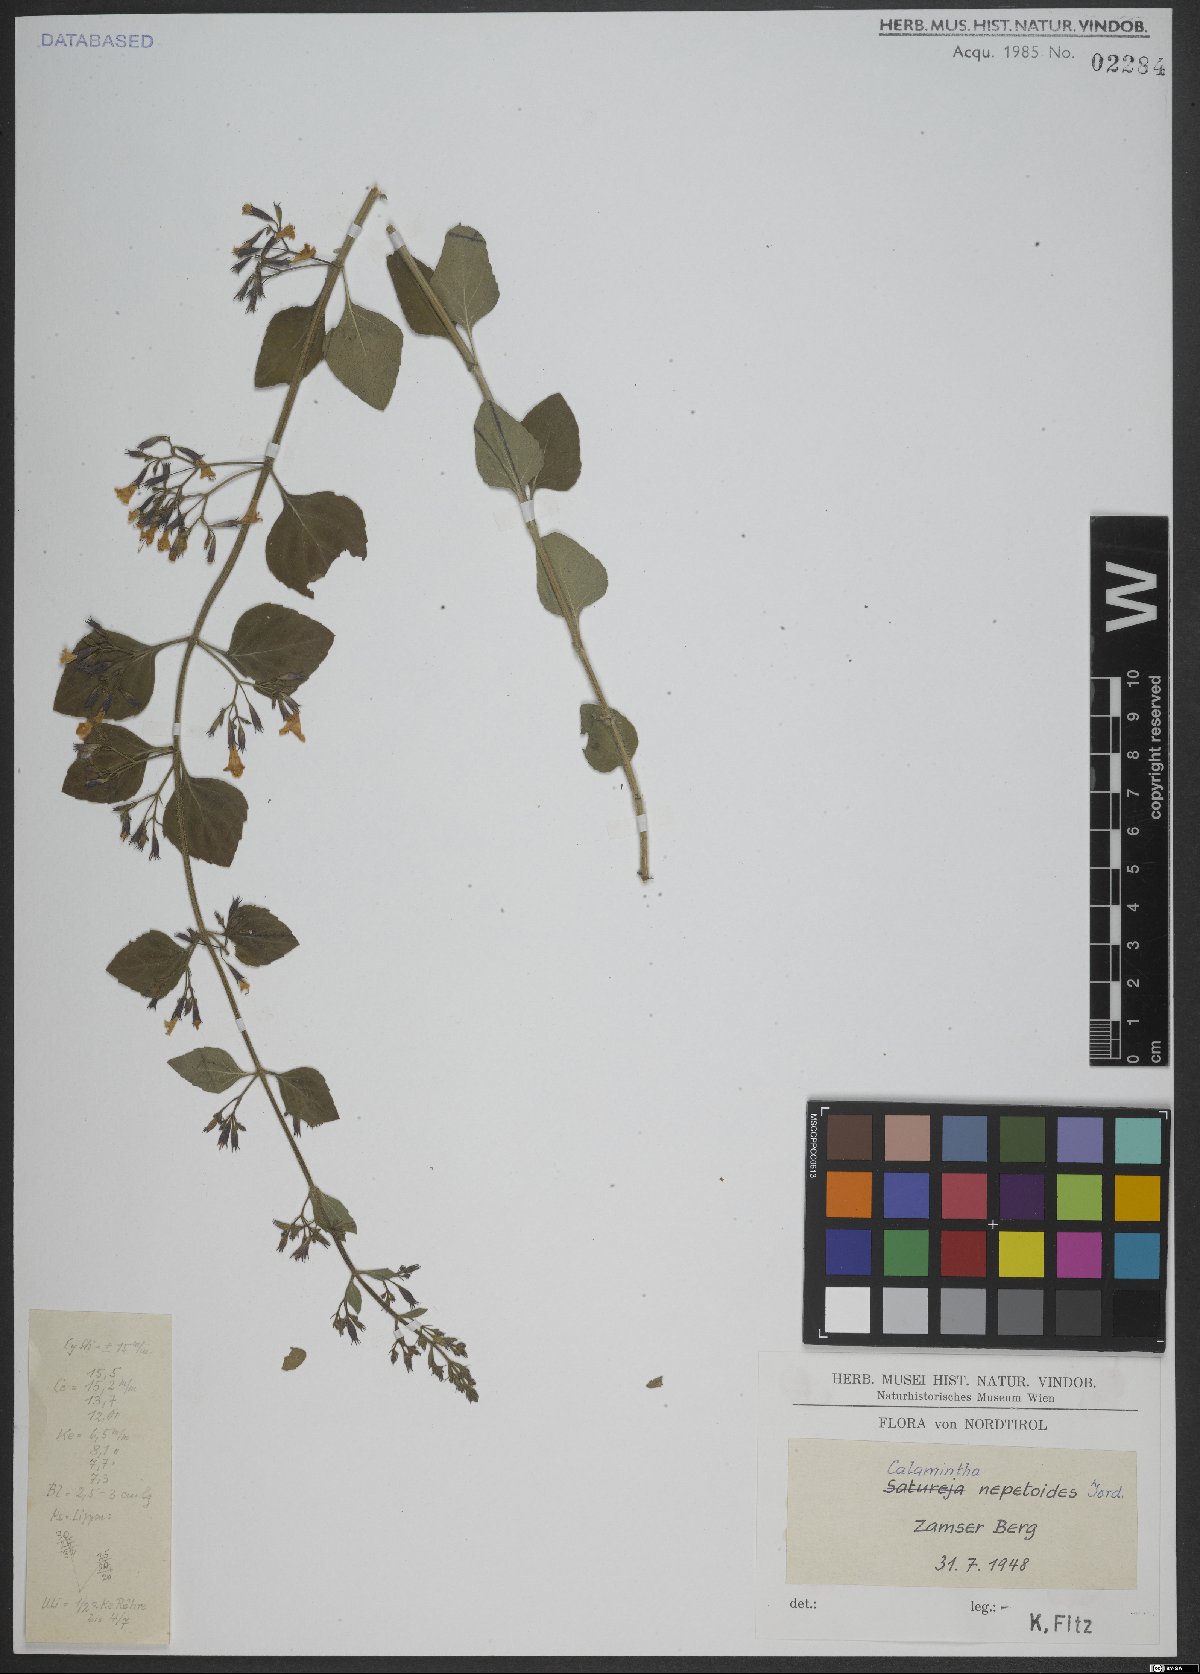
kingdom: Plantae
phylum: Tracheophyta
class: Magnoliopsida
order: Lamiales
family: Lamiaceae
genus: Clinopodium
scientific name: Clinopodium nepeta
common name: Lesser calamint
